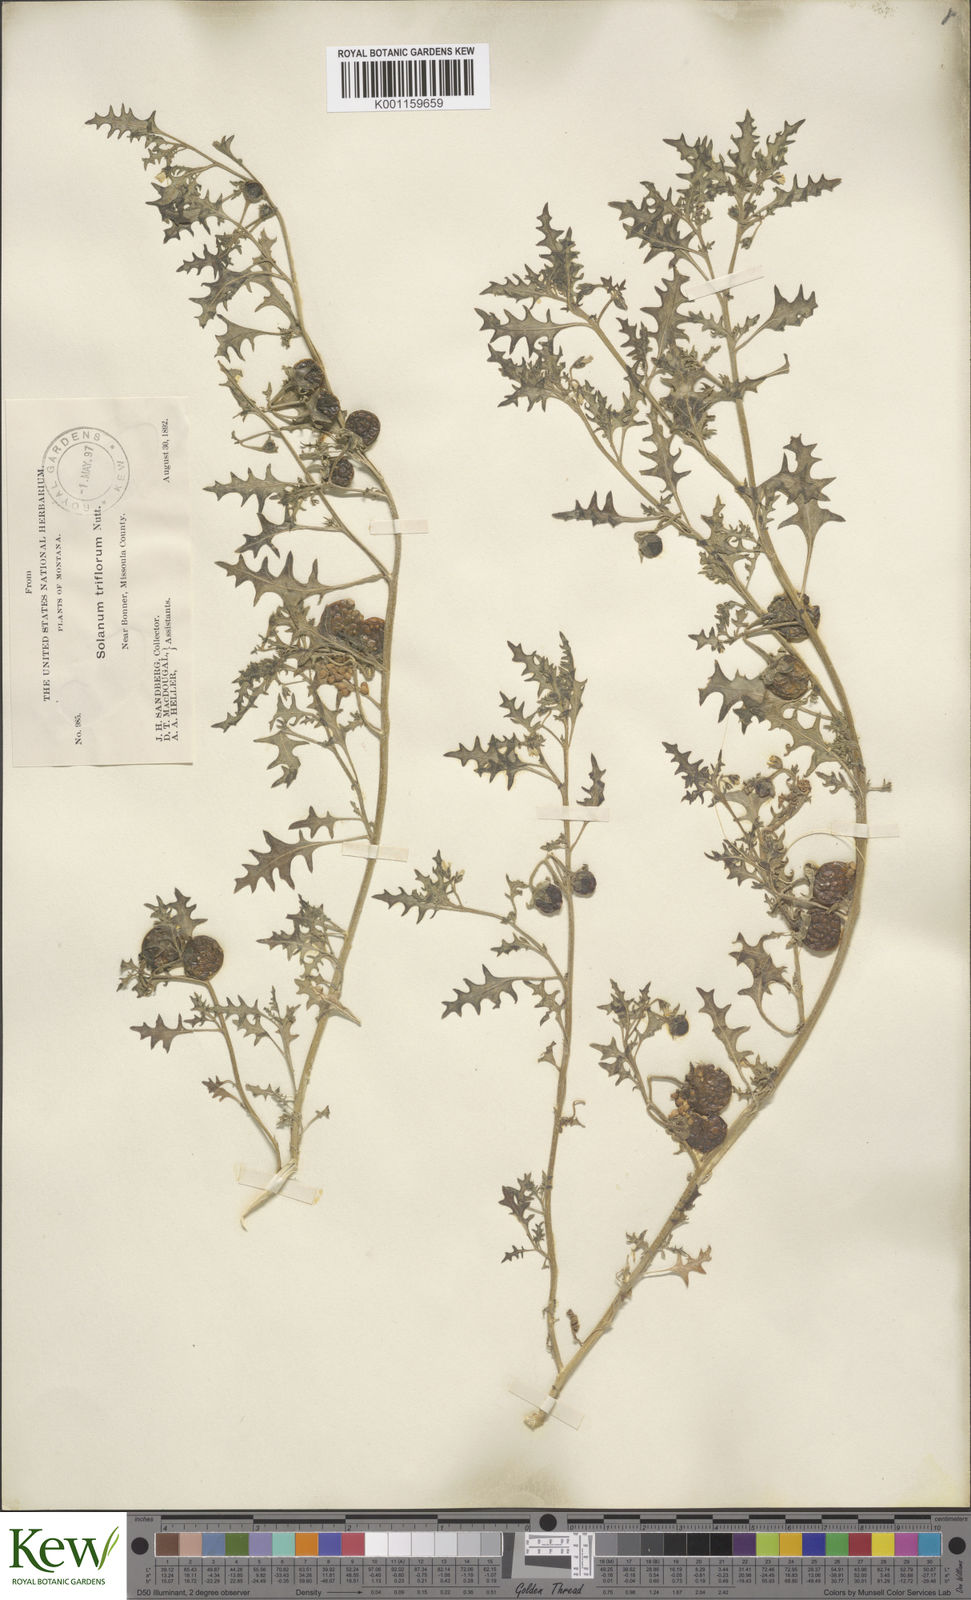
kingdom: Plantae
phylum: Tracheophyta
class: Magnoliopsida
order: Solanales
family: Solanaceae
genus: Solanum
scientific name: Solanum triflorum
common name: Small nightshade
